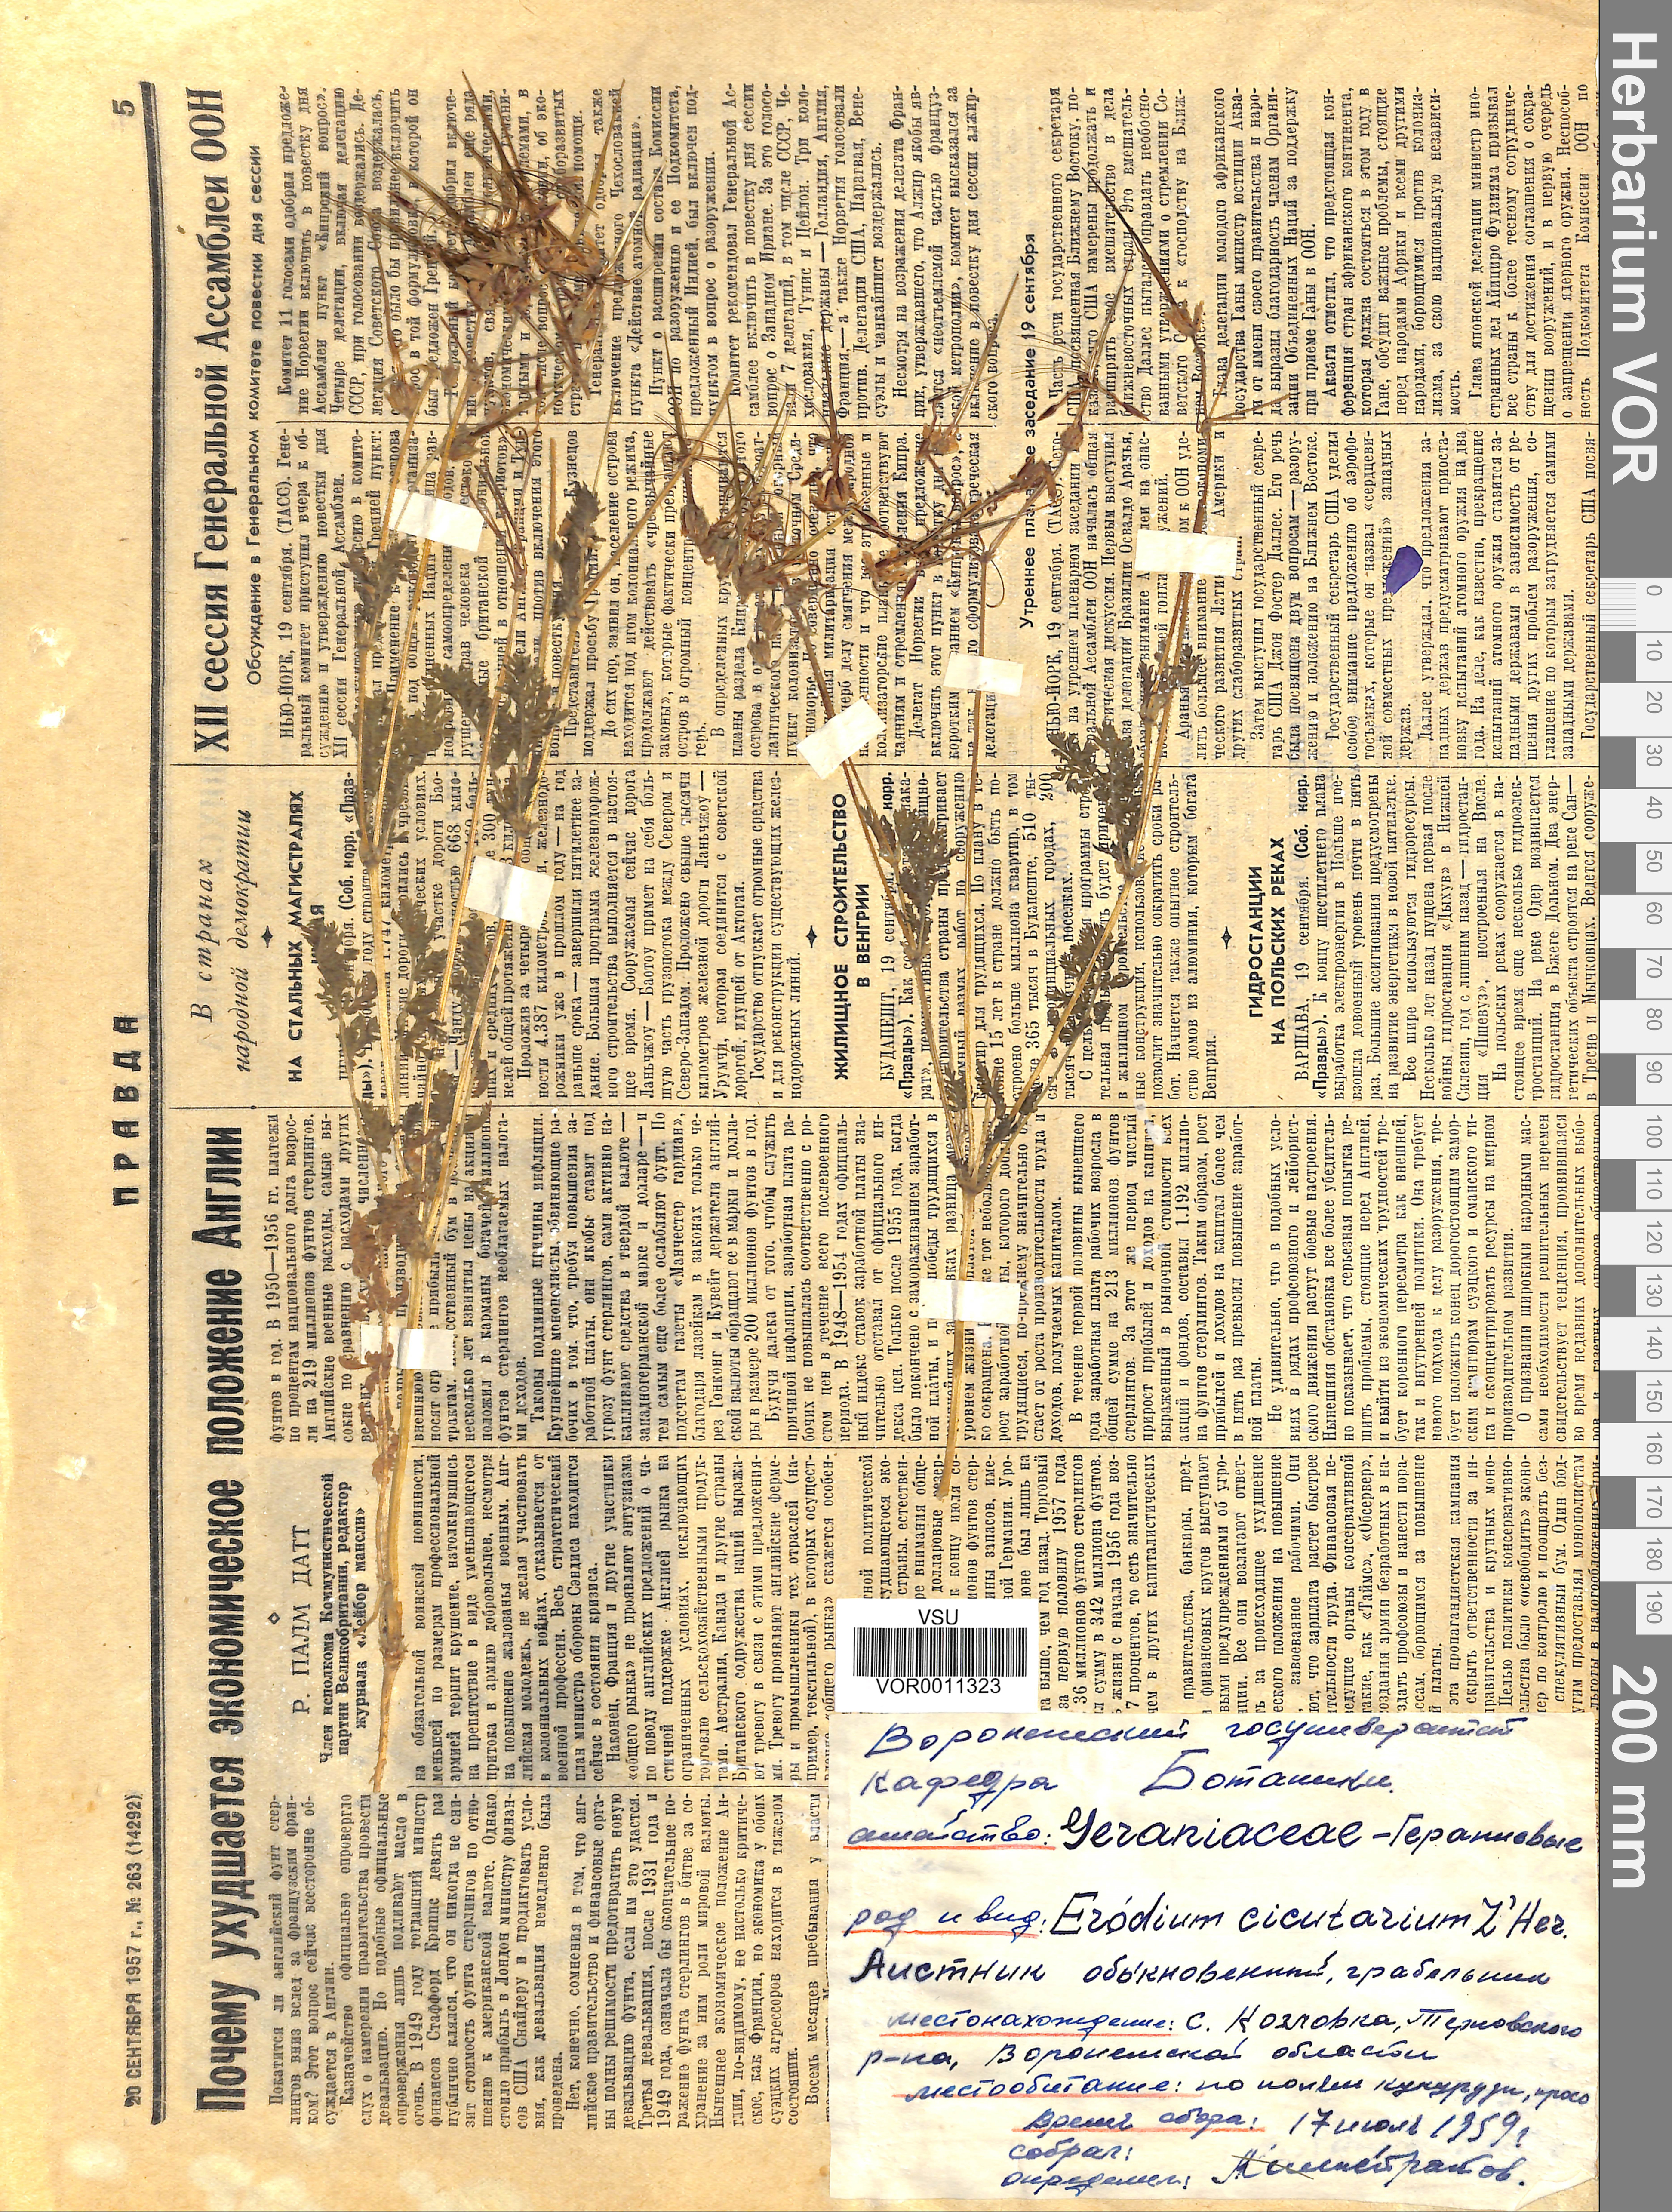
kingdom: Plantae
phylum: Tracheophyta
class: Magnoliopsida
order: Geraniales
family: Geraniaceae
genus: Erodium
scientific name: Erodium cicutarium
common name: Common stork's-bill
